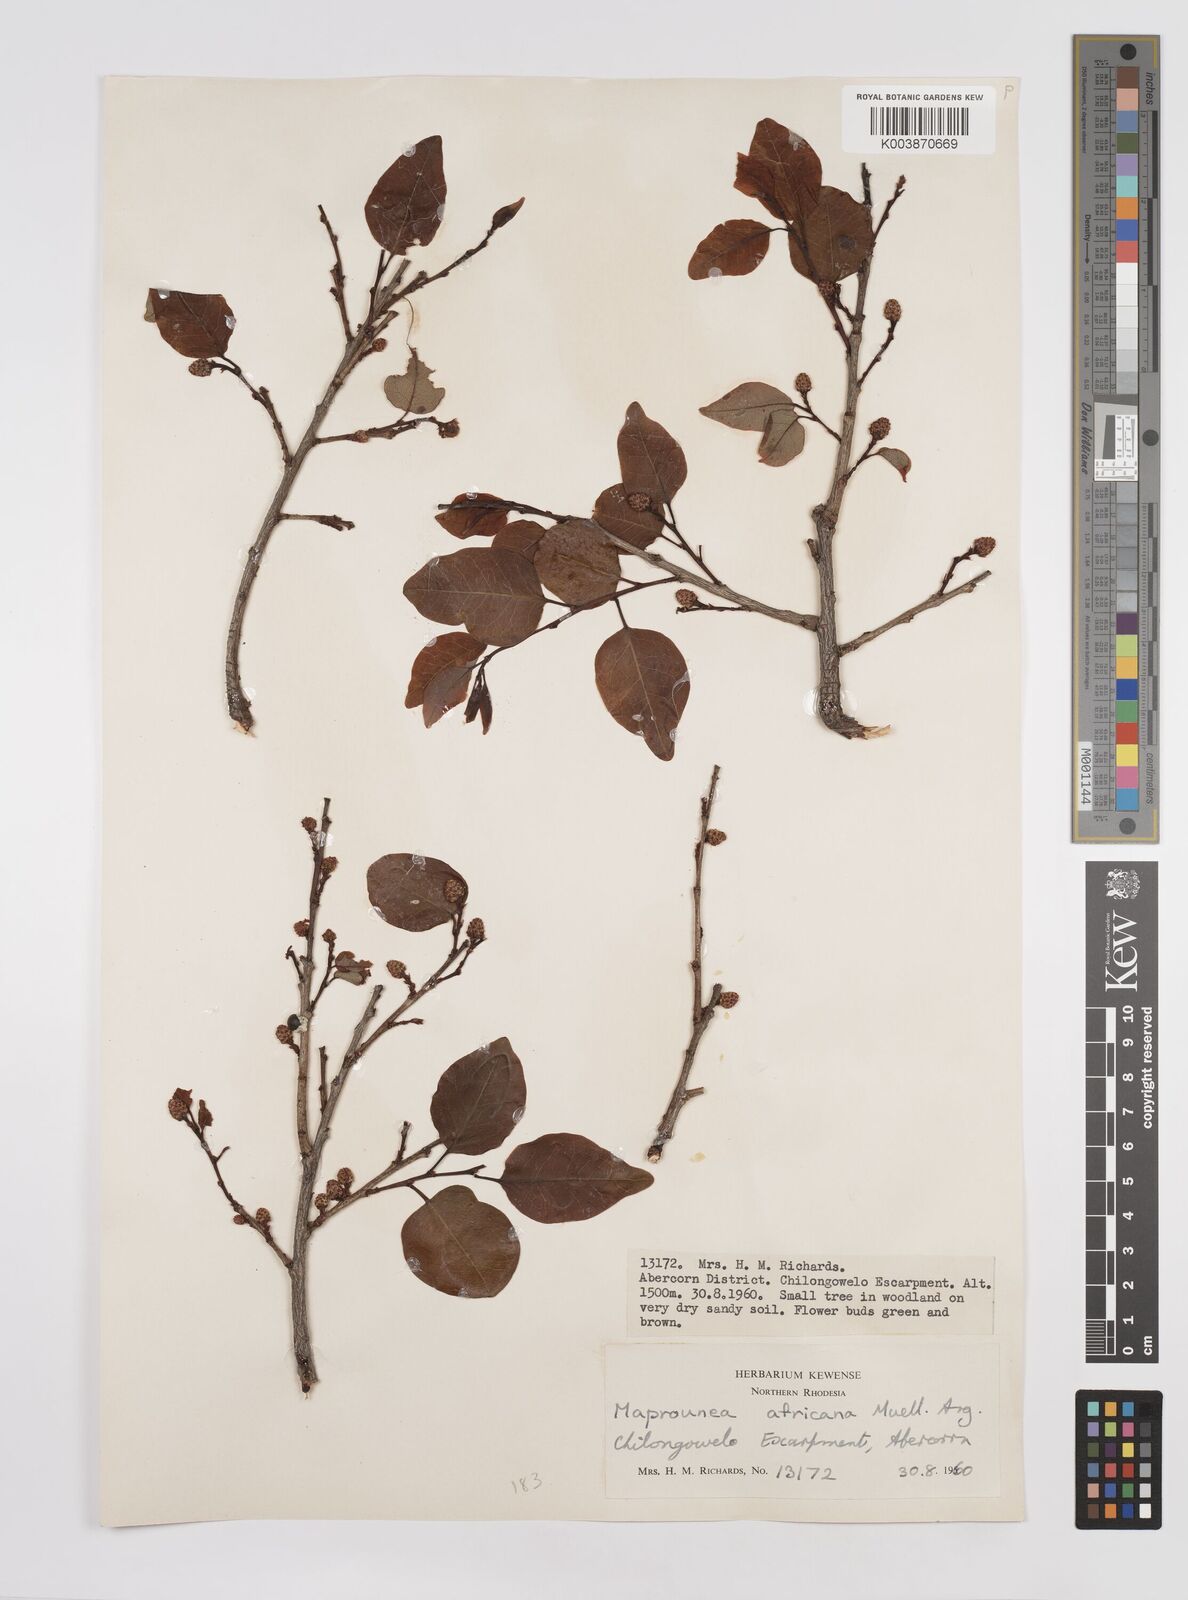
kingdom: Plantae
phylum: Tracheophyta
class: Magnoliopsida
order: Malpighiales
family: Euphorbiaceae
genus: Maprounea
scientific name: Maprounea africana
